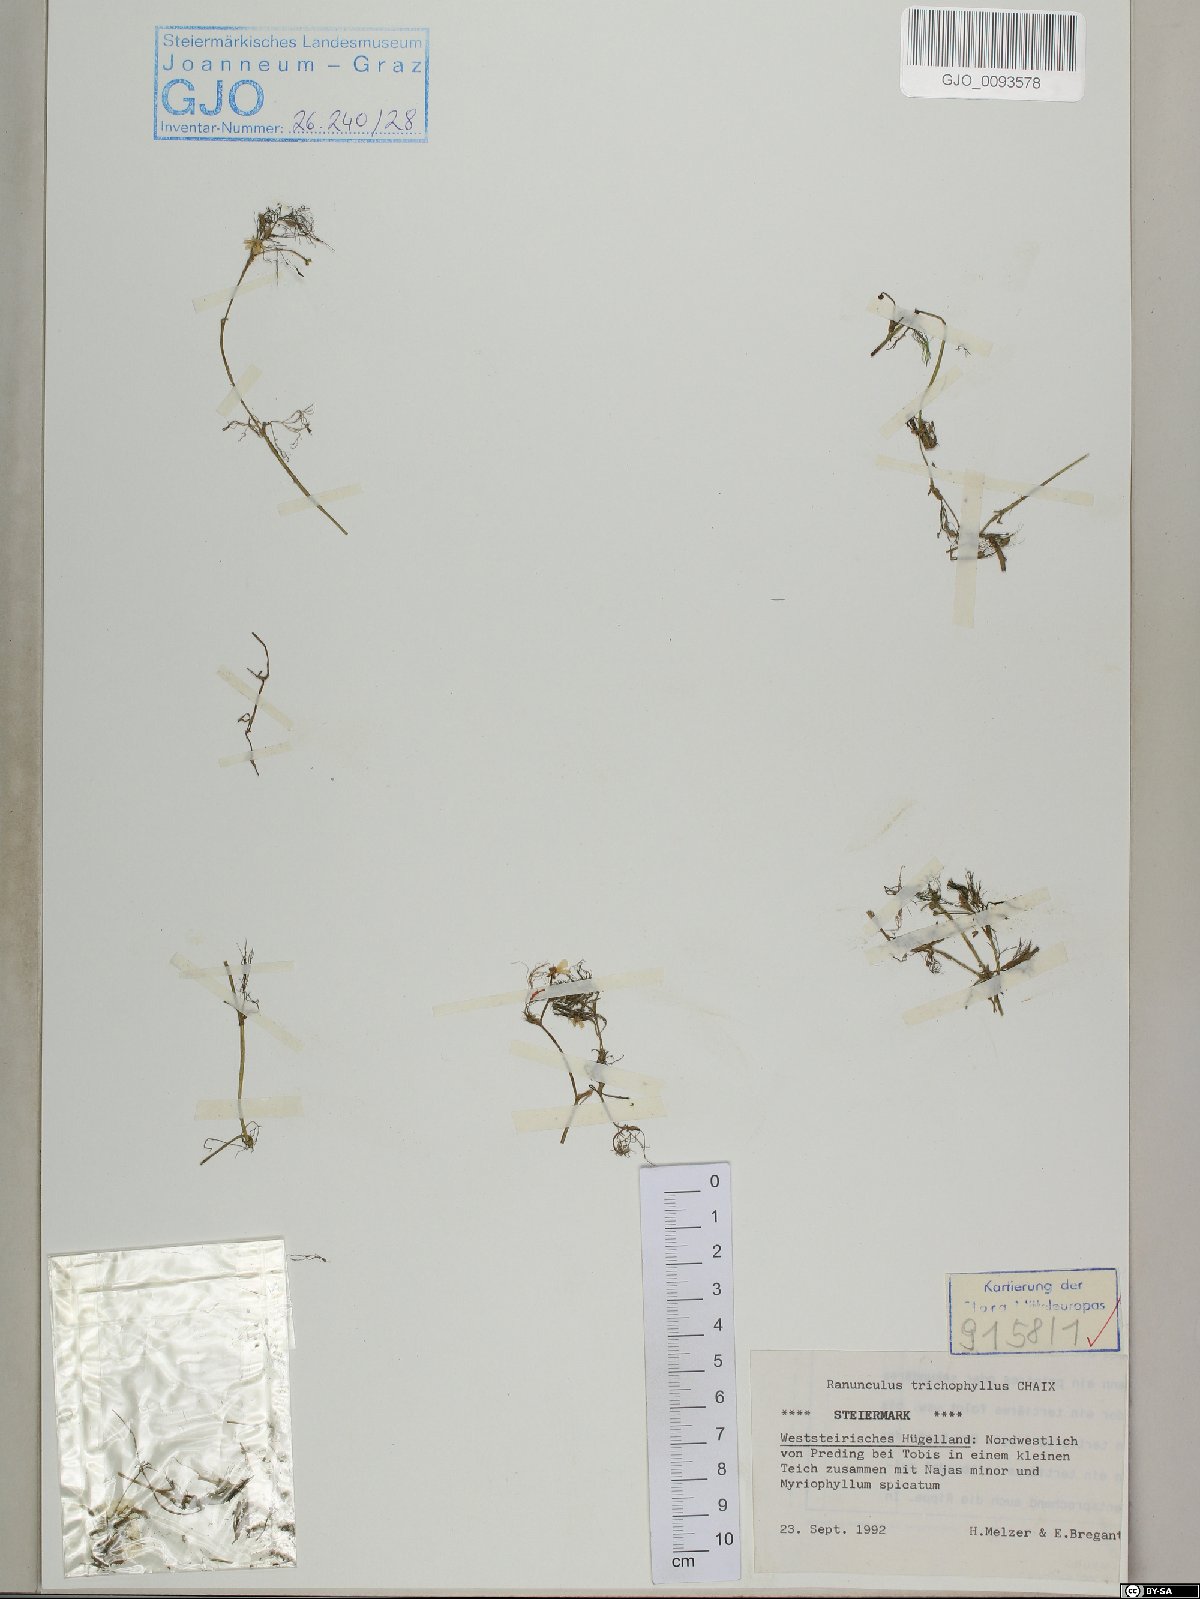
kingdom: Plantae
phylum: Tracheophyta
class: Magnoliopsida
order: Ranunculales
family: Ranunculaceae
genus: Ranunculus
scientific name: Ranunculus trichophyllus
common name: Thread-leaved water-crowfoot
